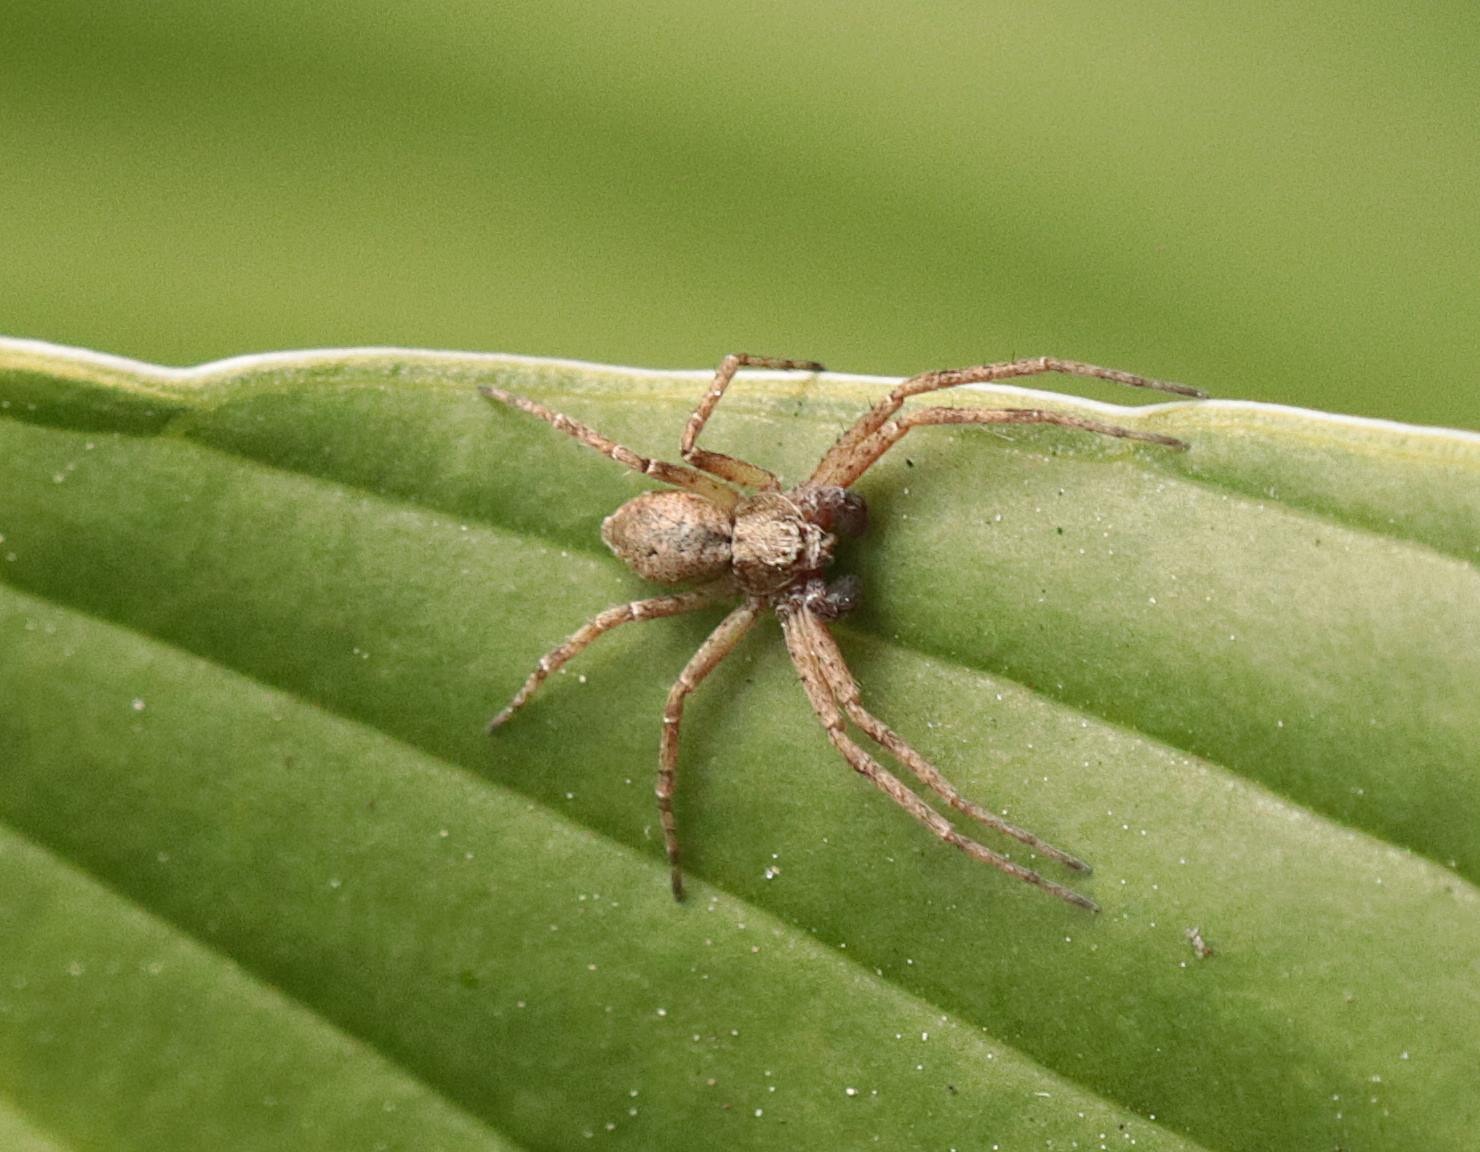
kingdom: Animalia
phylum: Arthropoda
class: Arachnida
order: Araneae
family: Philodromidae
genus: Philodromus
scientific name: Philodromus aureolus
